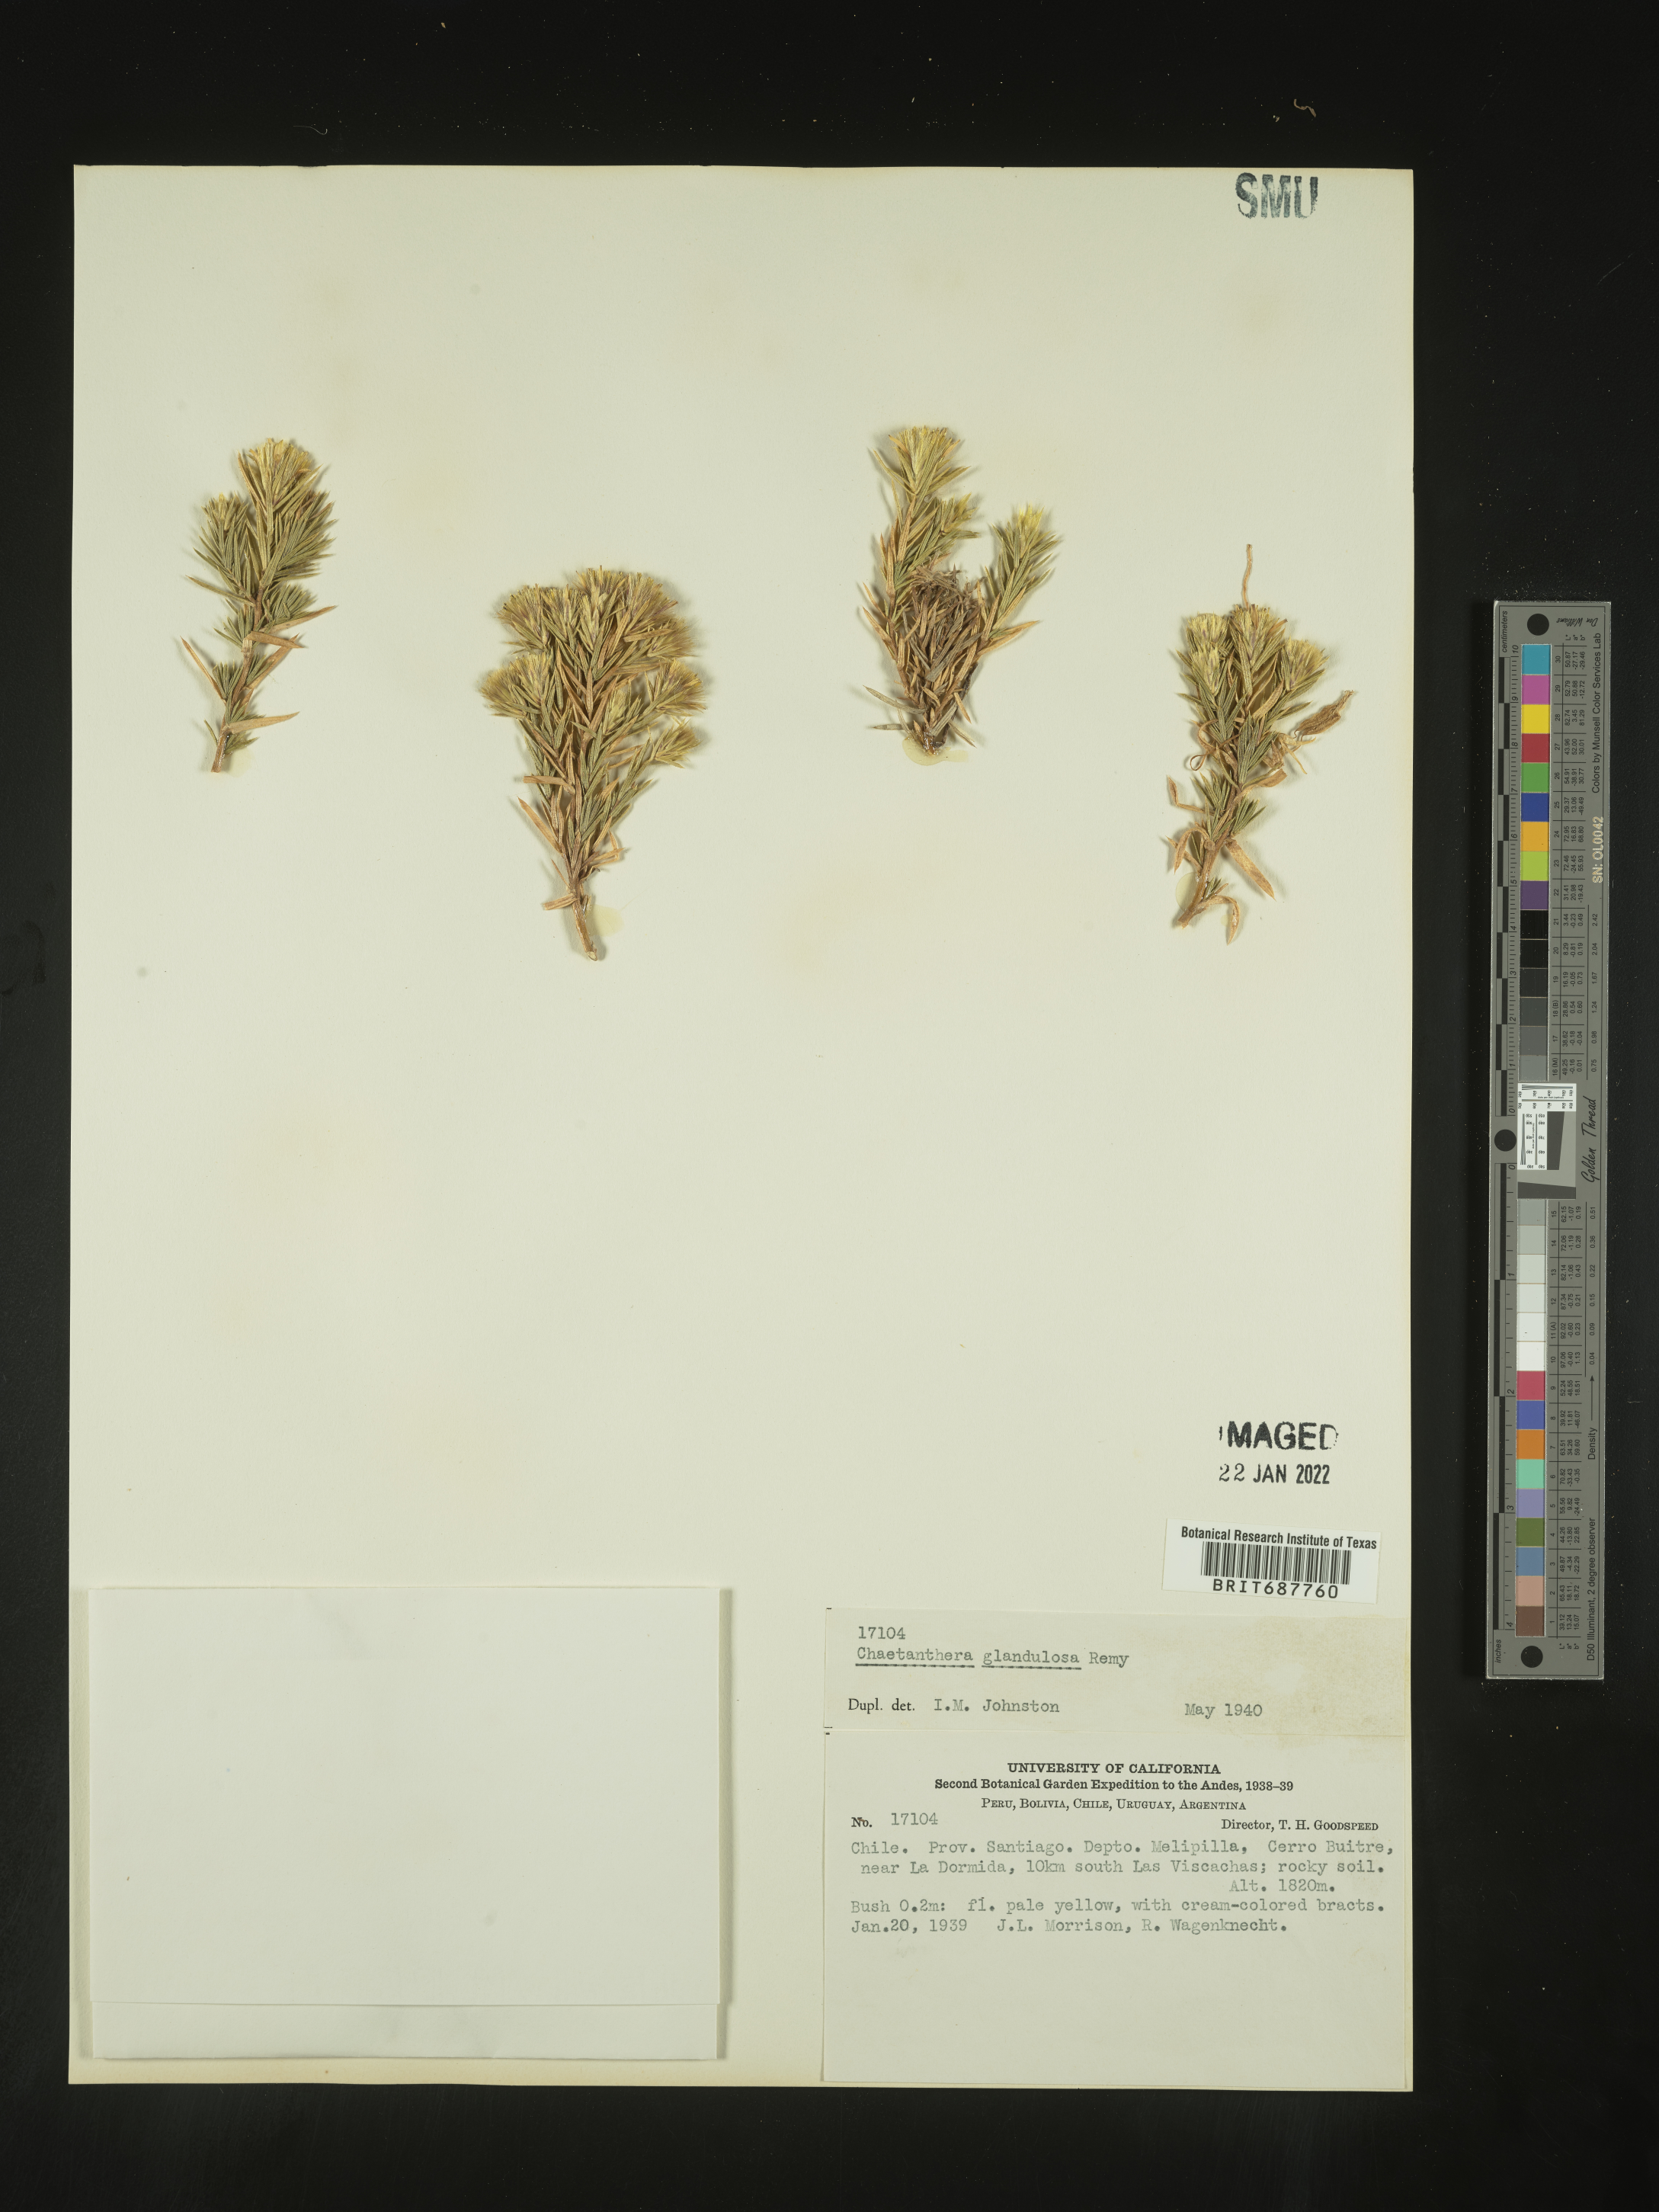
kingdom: Plantae
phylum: Tracheophyta
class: Magnoliopsida
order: Asterales
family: Asteraceae
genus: Chaetanthera
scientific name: Chaetanthera
